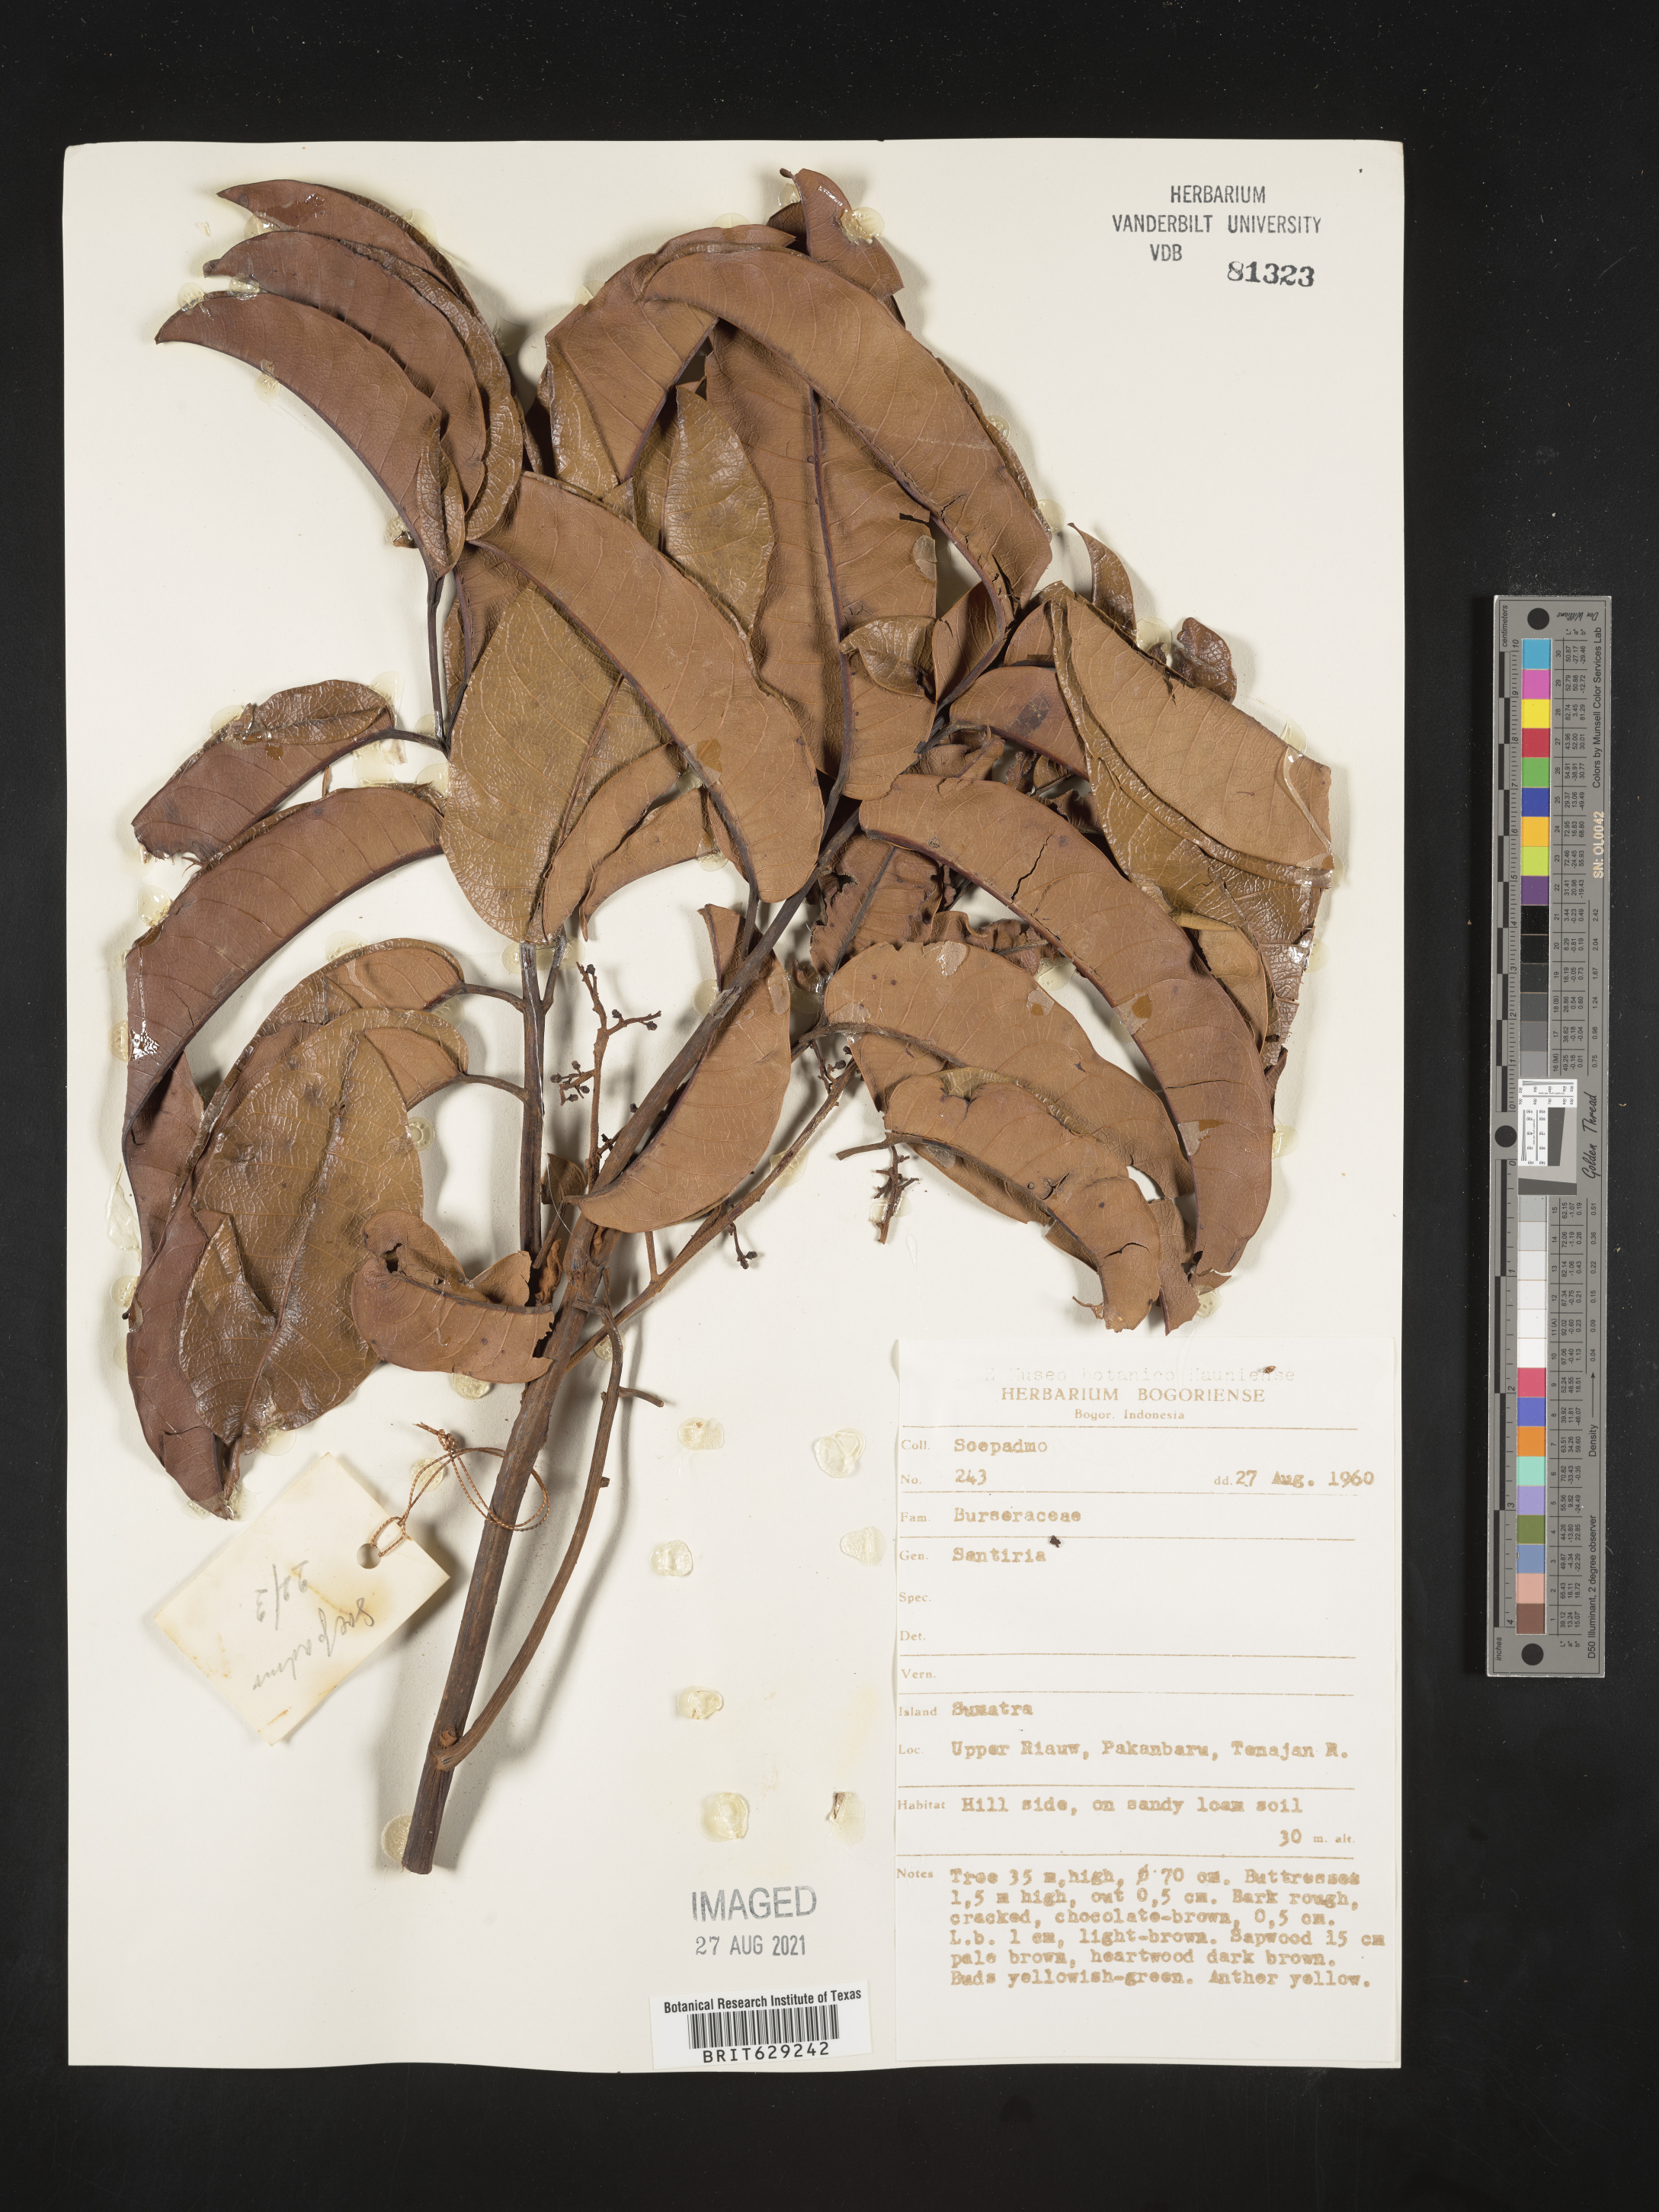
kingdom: Plantae
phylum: Tracheophyta
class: Magnoliopsida
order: Sapindales
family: Burseraceae
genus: Santiria
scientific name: Santiria
